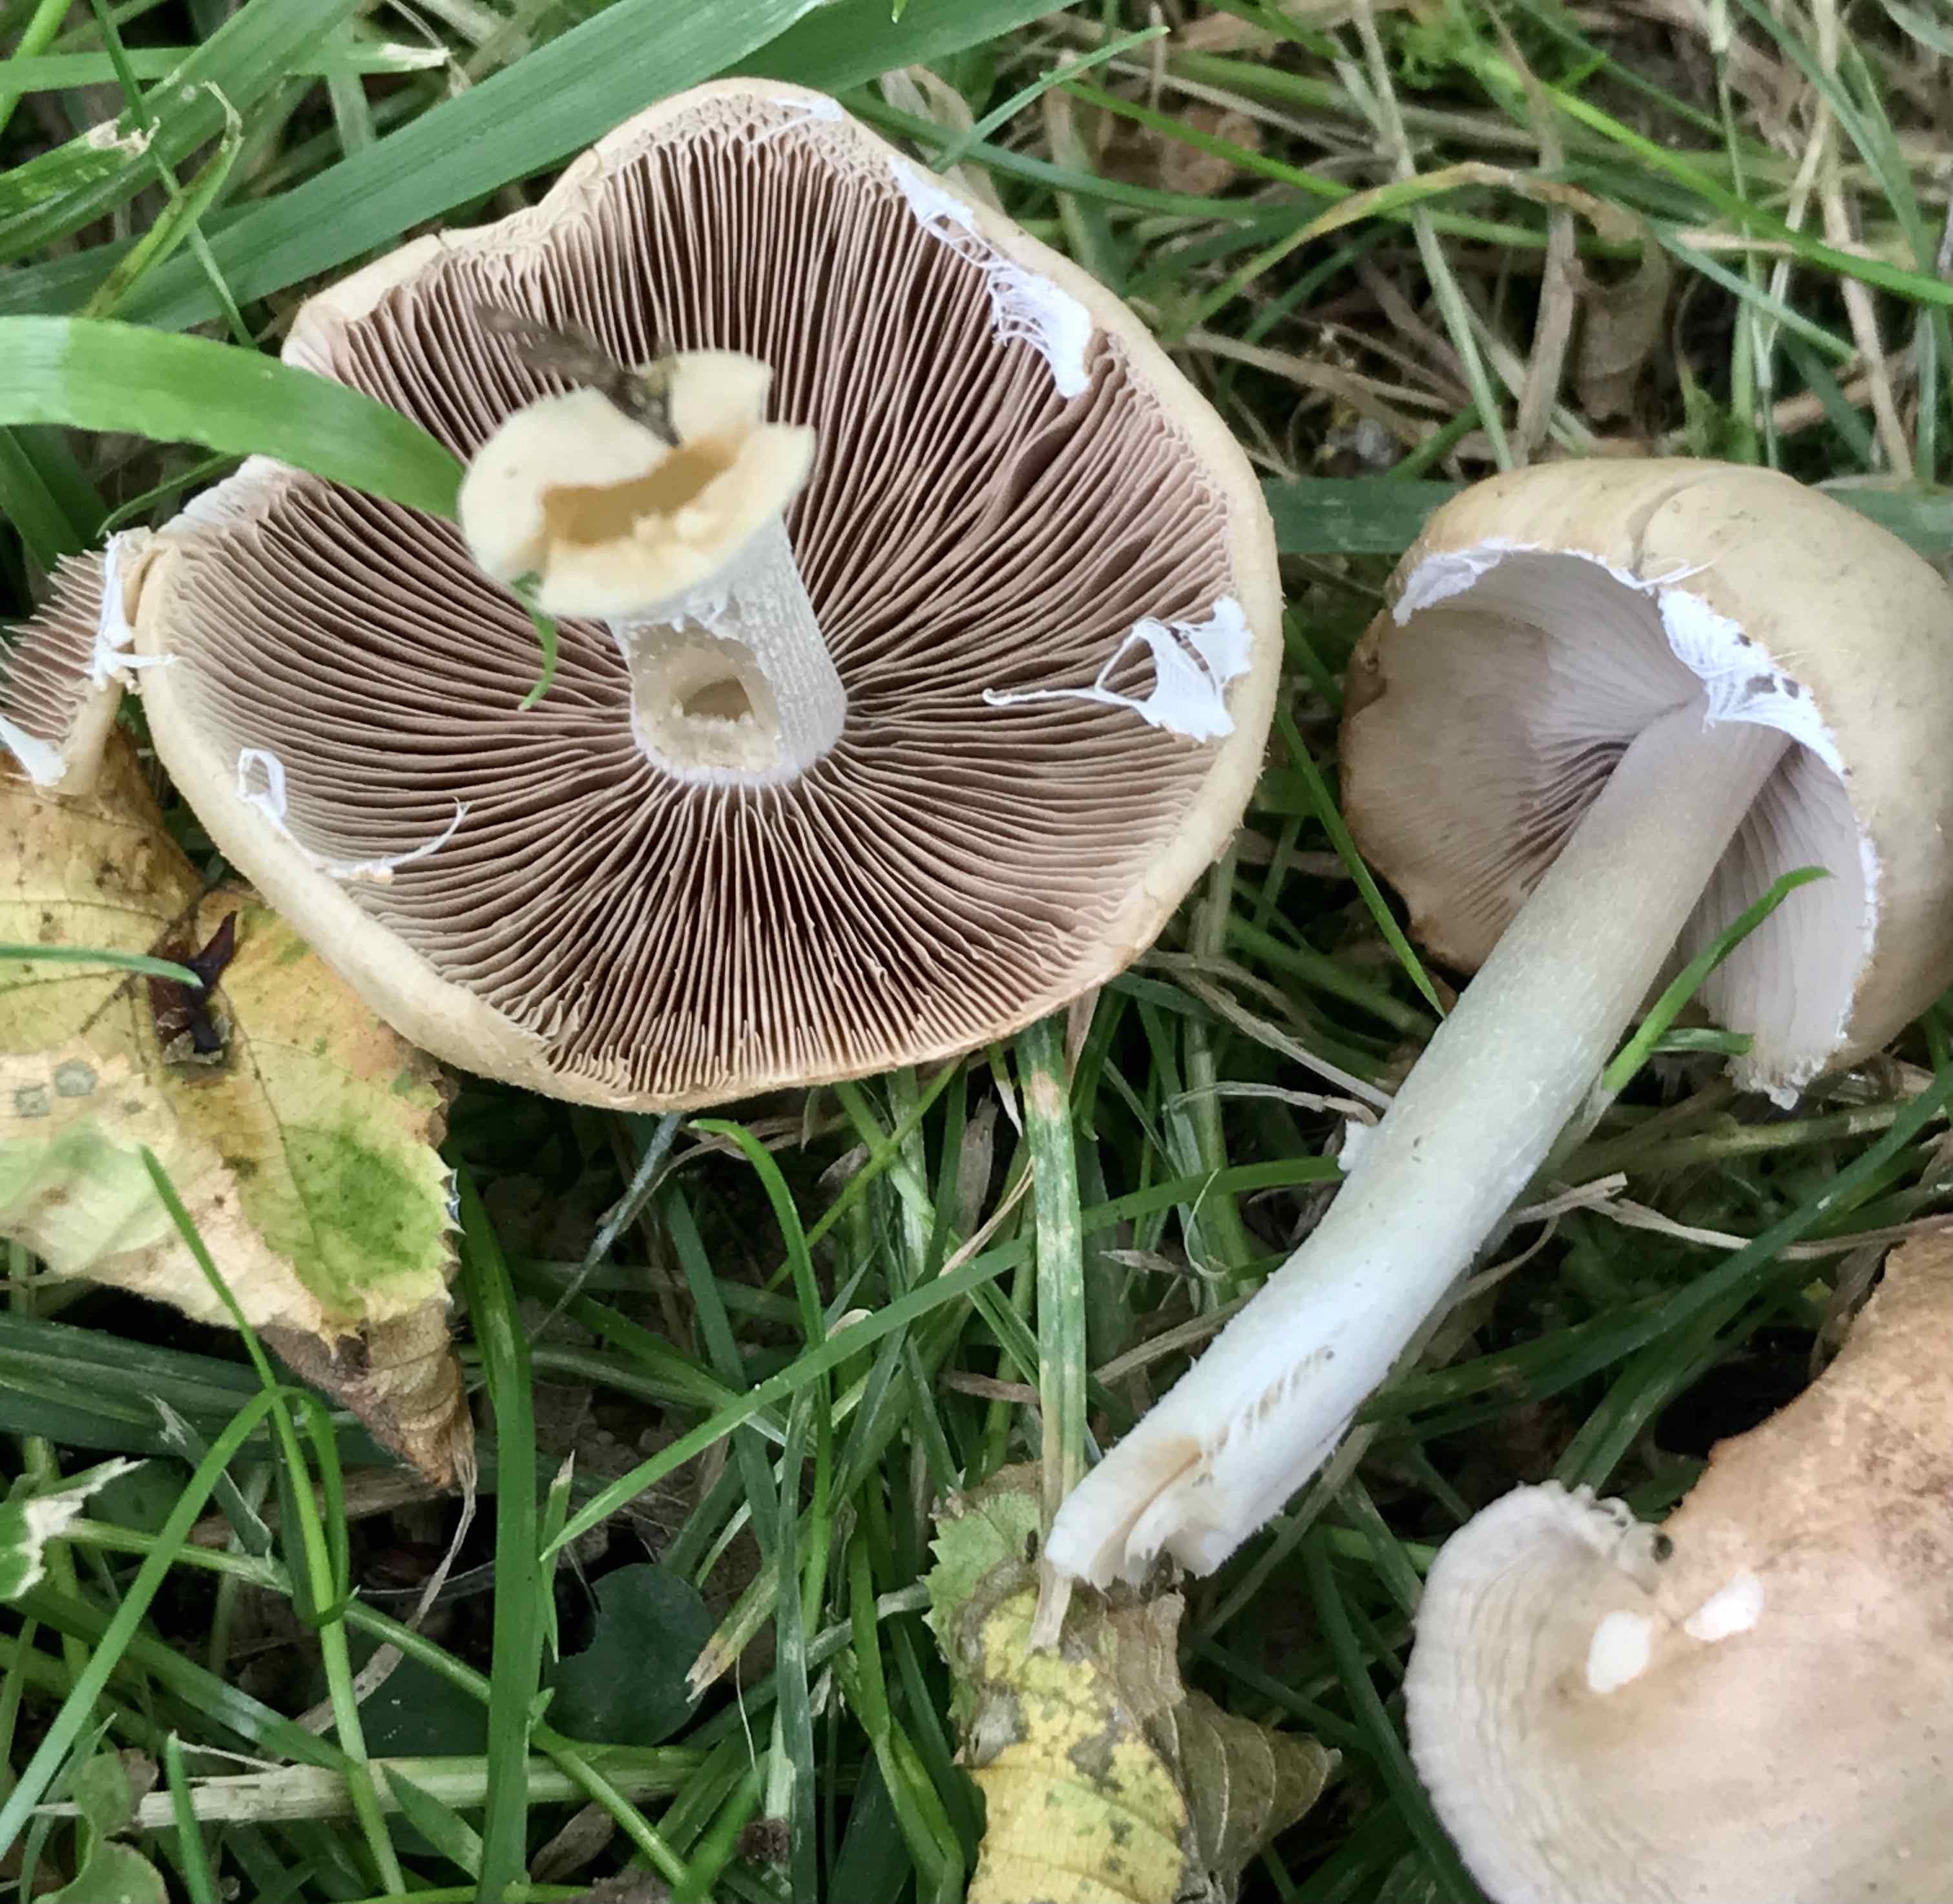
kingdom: Fungi
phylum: Basidiomycota
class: Agaricomycetes
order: Agaricales
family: Psathyrellaceae
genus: Candolleomyces
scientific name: Candolleomyces candolleanus
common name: Candolles mørkhat
